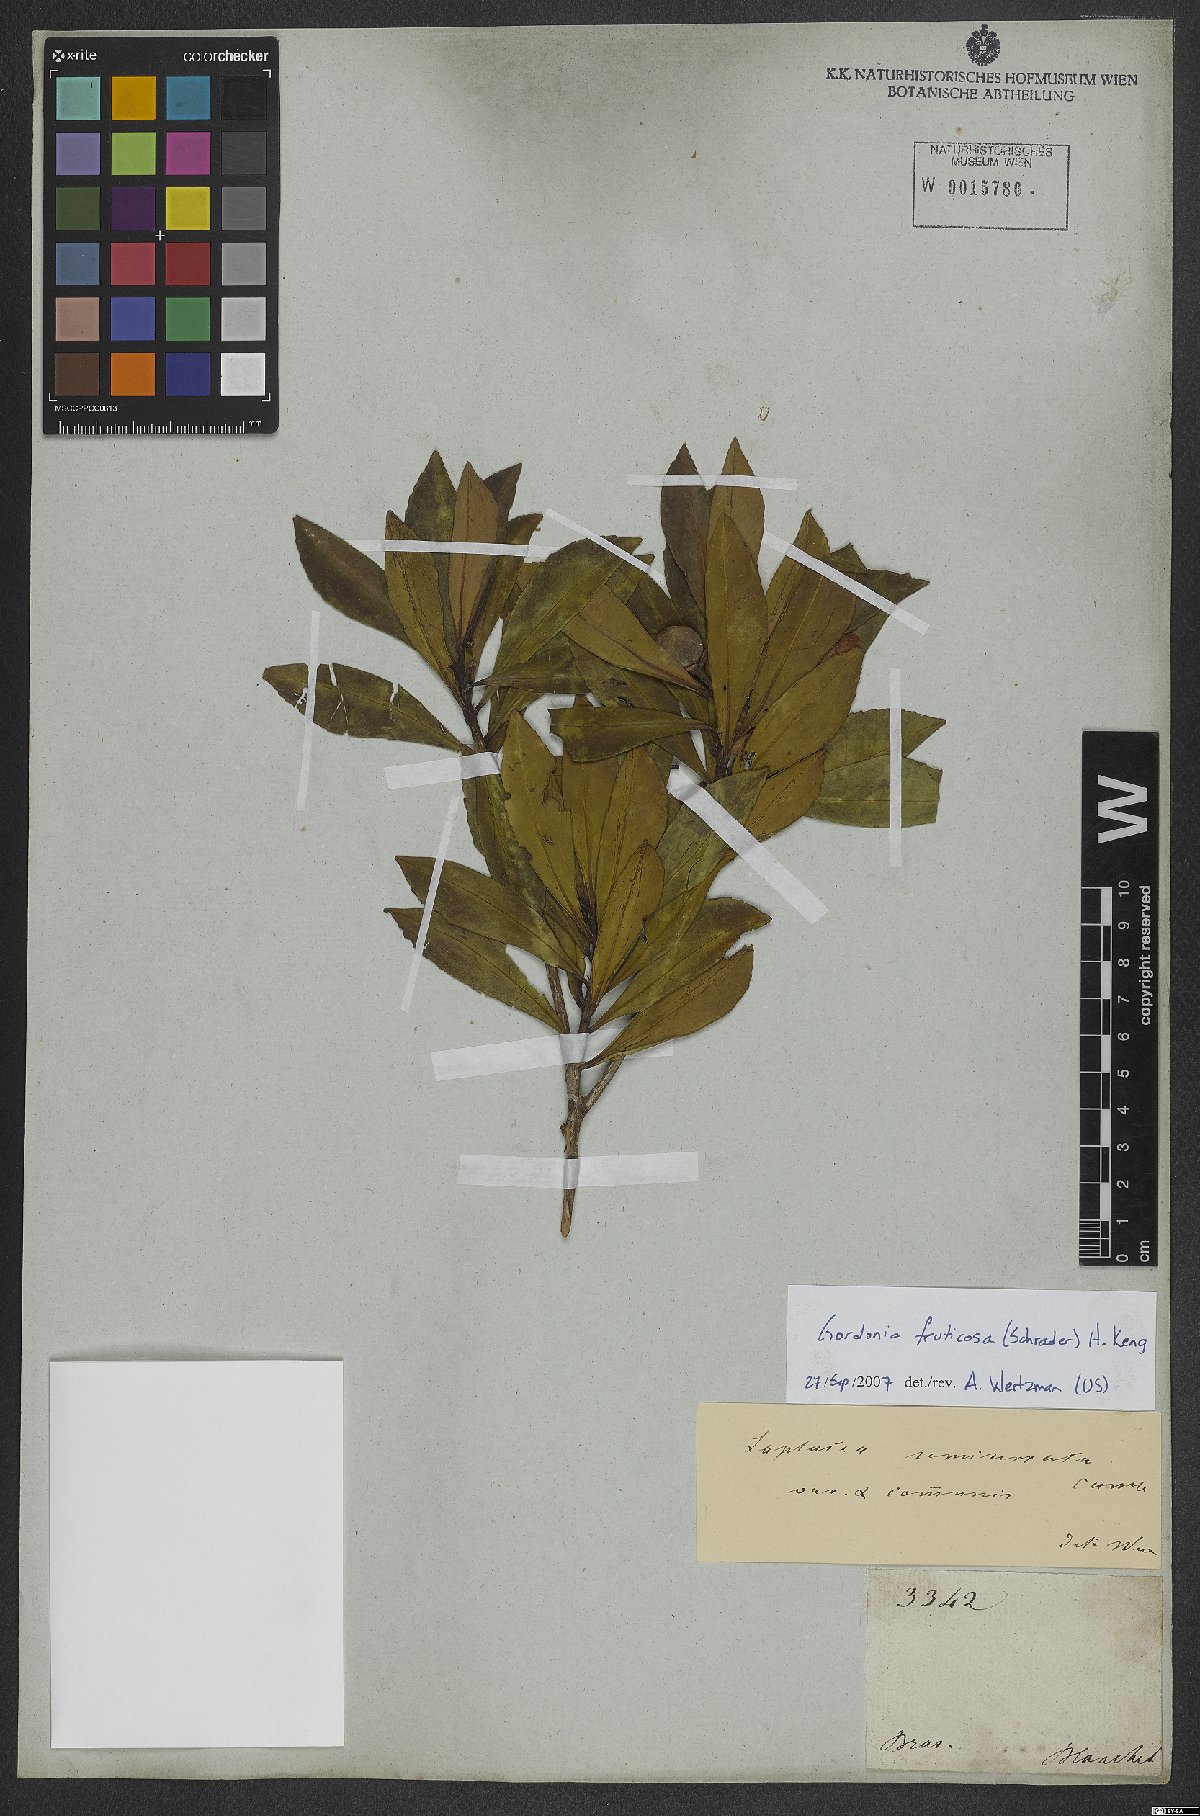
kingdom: Plantae
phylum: Tracheophyta
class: Magnoliopsida
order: Ericales
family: Theaceae
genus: Gordonia
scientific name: Gordonia fruticosa
